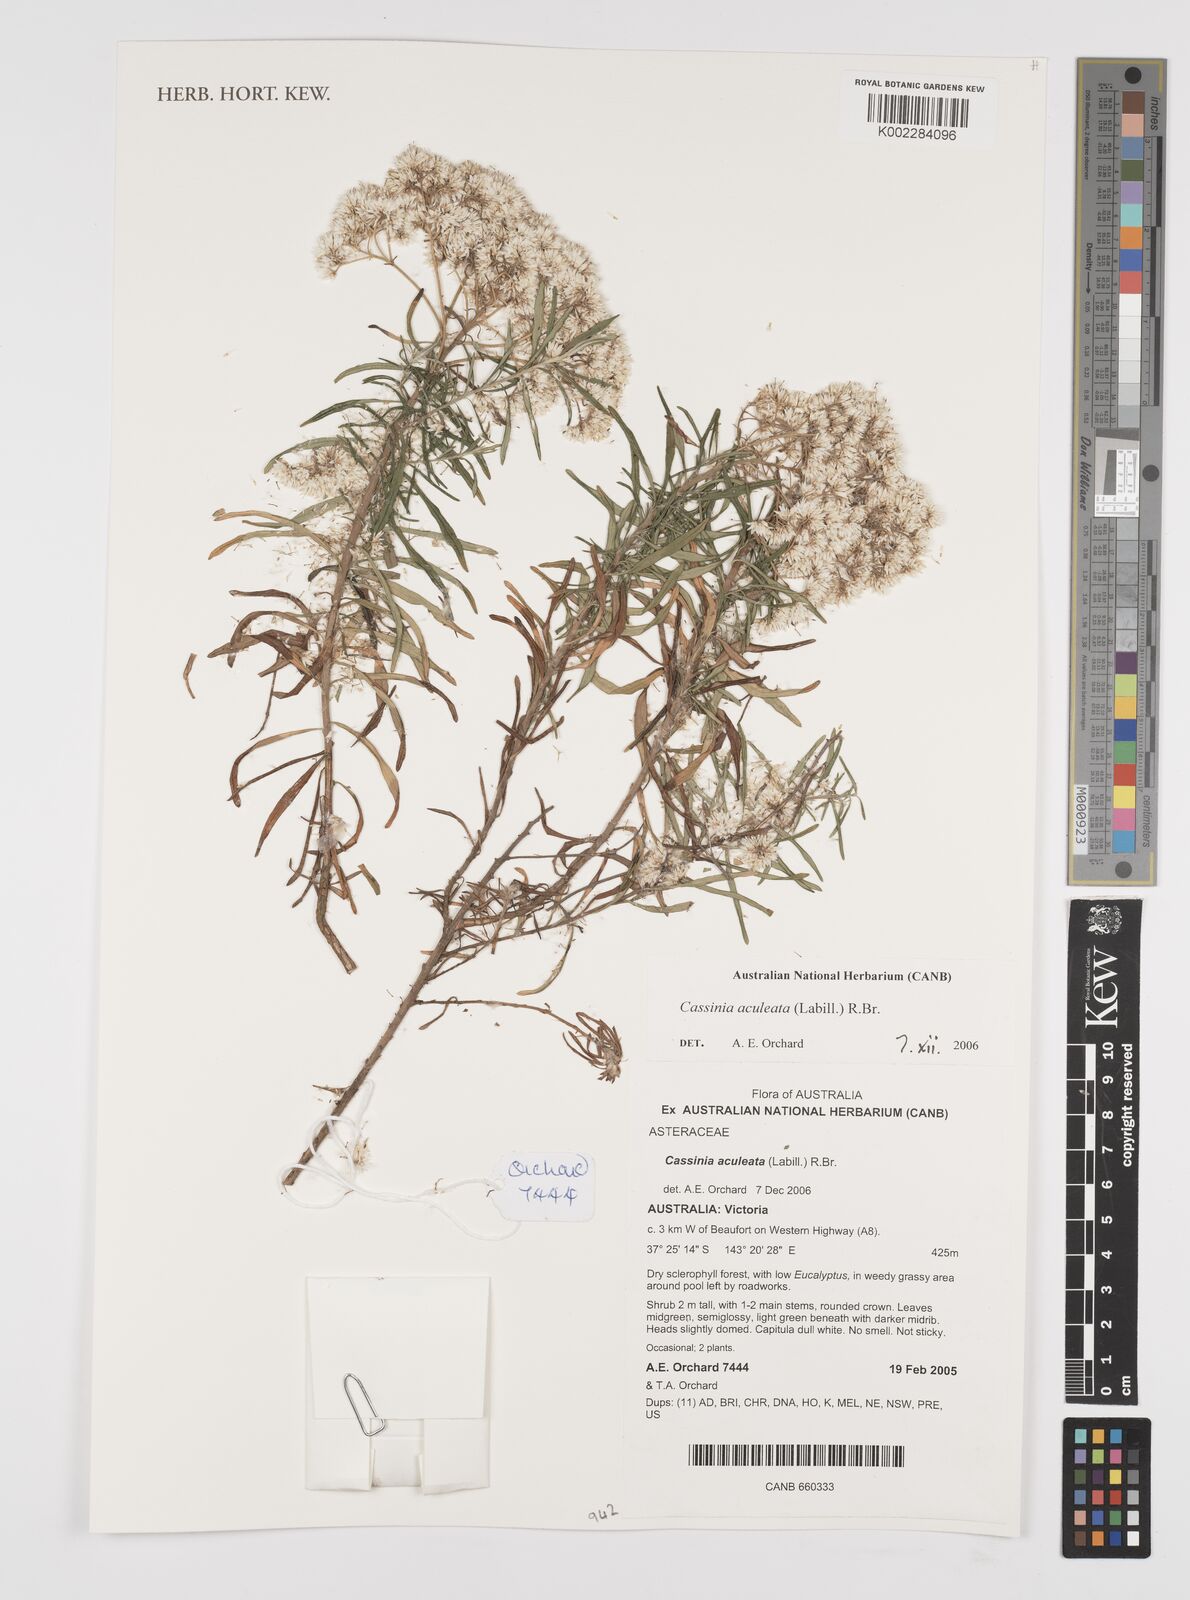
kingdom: Plantae
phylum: Tracheophyta
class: Magnoliopsida
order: Asterales
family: Asteraceae
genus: Cassinia
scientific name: Cassinia aculeata
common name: Australian tauhinu
